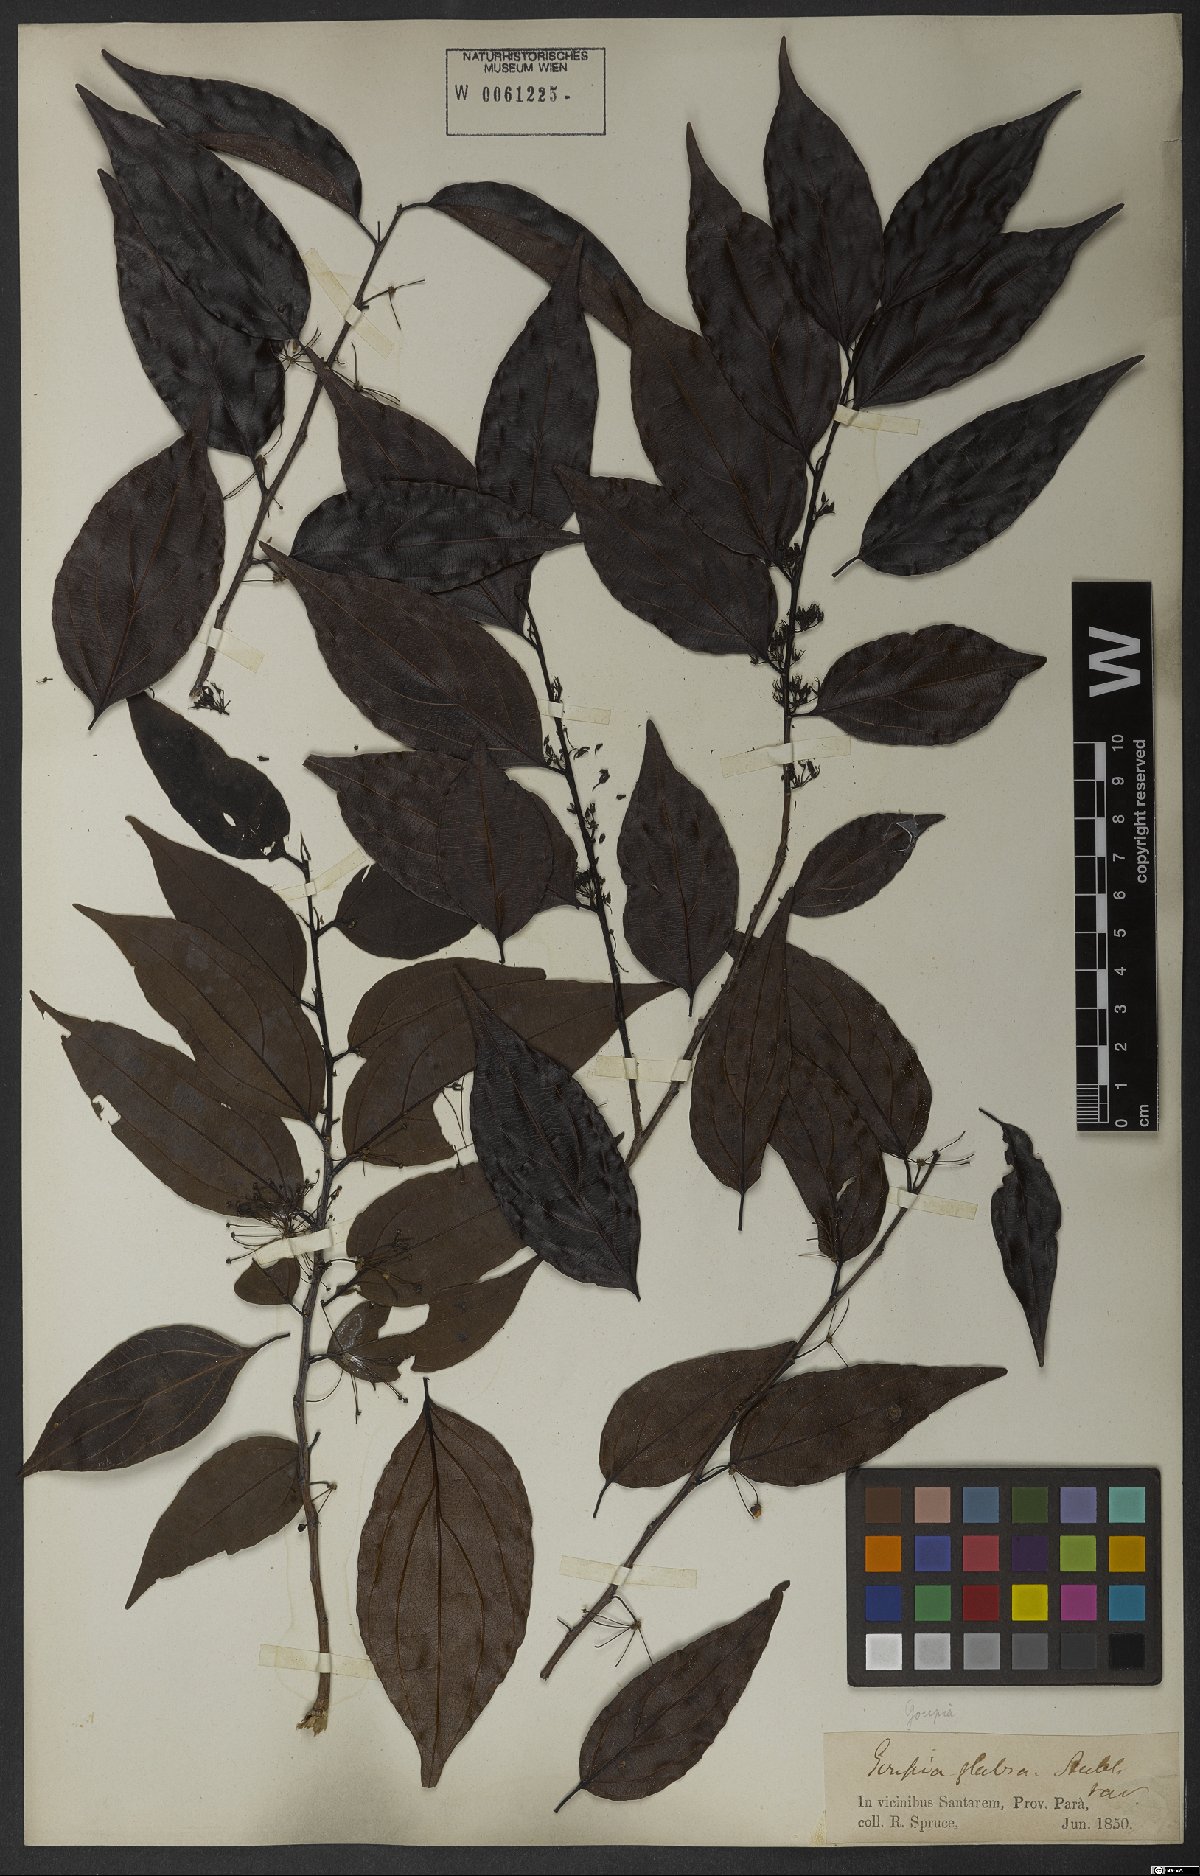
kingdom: Plantae
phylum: Tracheophyta
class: Magnoliopsida
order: Malpighiales
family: Goupiaceae
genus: Goupia
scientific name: Goupia glabra
